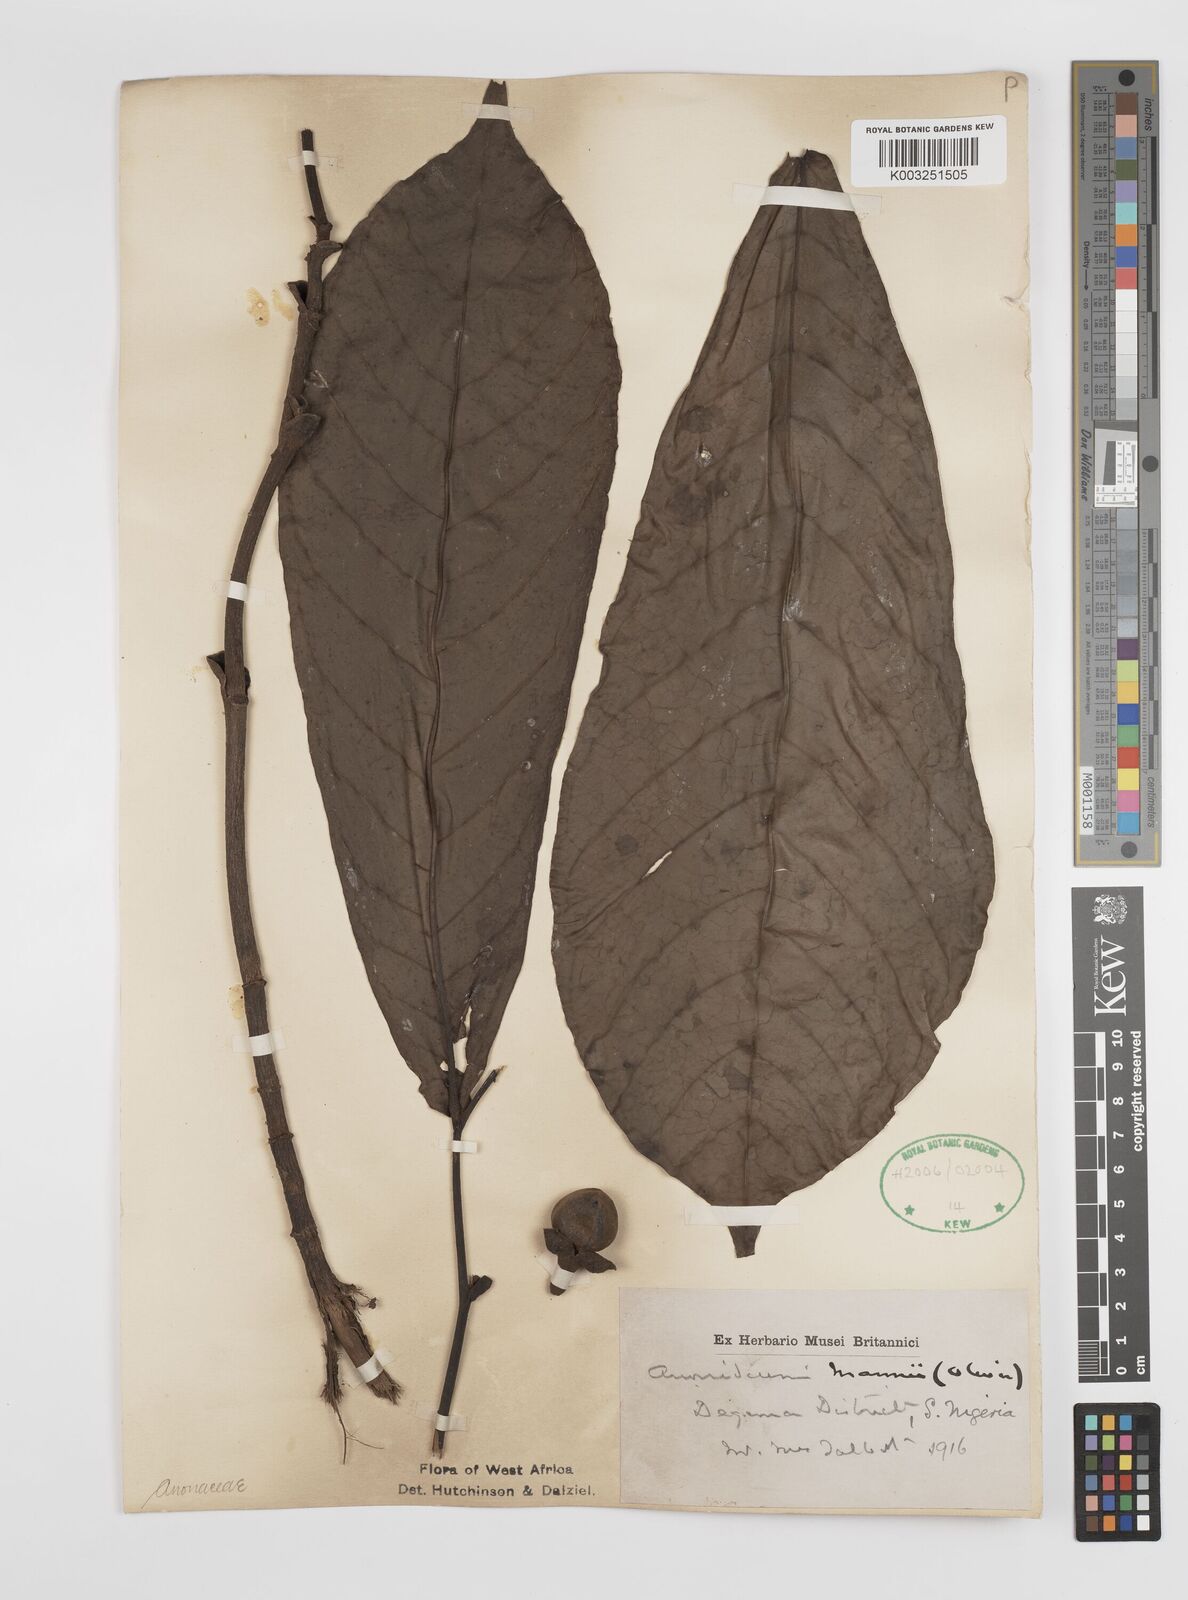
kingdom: Plantae
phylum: Tracheophyta
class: Magnoliopsida
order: Magnoliales
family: Annonaceae
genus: Anonidium
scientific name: Anonidium mannii
